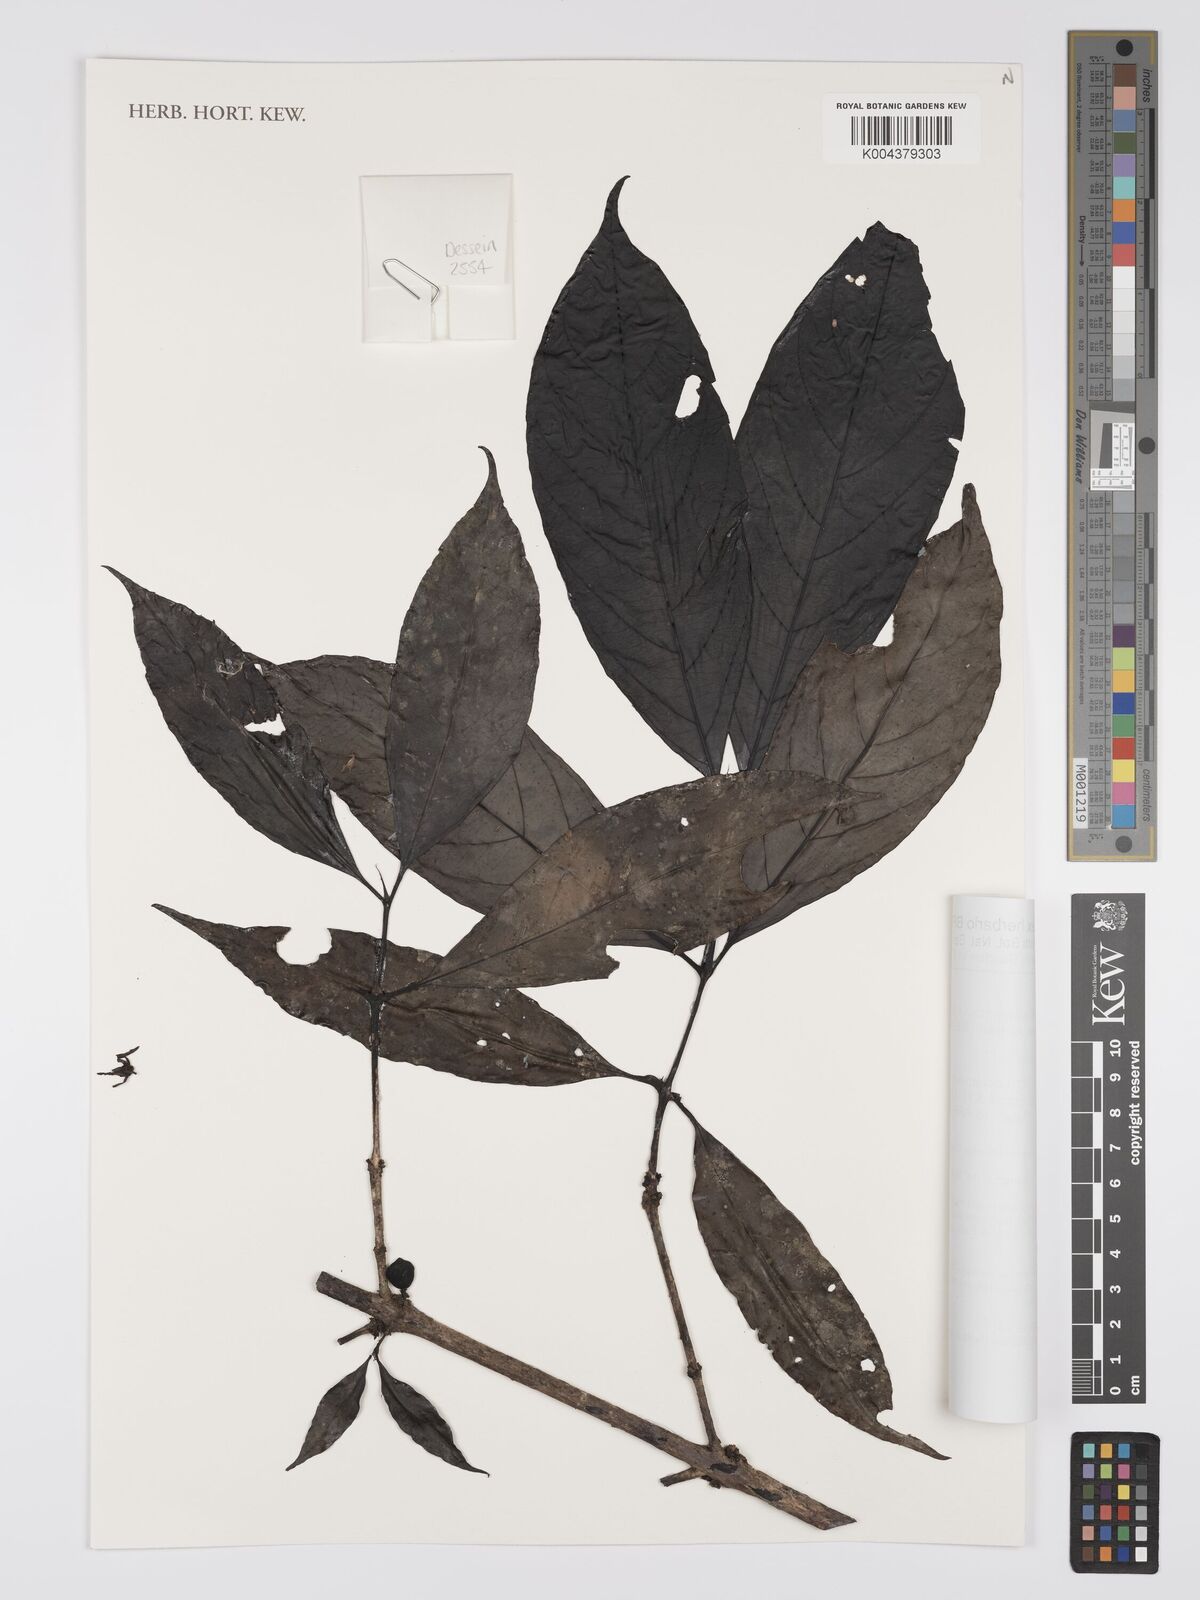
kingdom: Plantae
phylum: Tracheophyta
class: Magnoliopsida
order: Gentianales
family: Rubiaceae
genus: Belonophora
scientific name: Belonophora coffeoides
